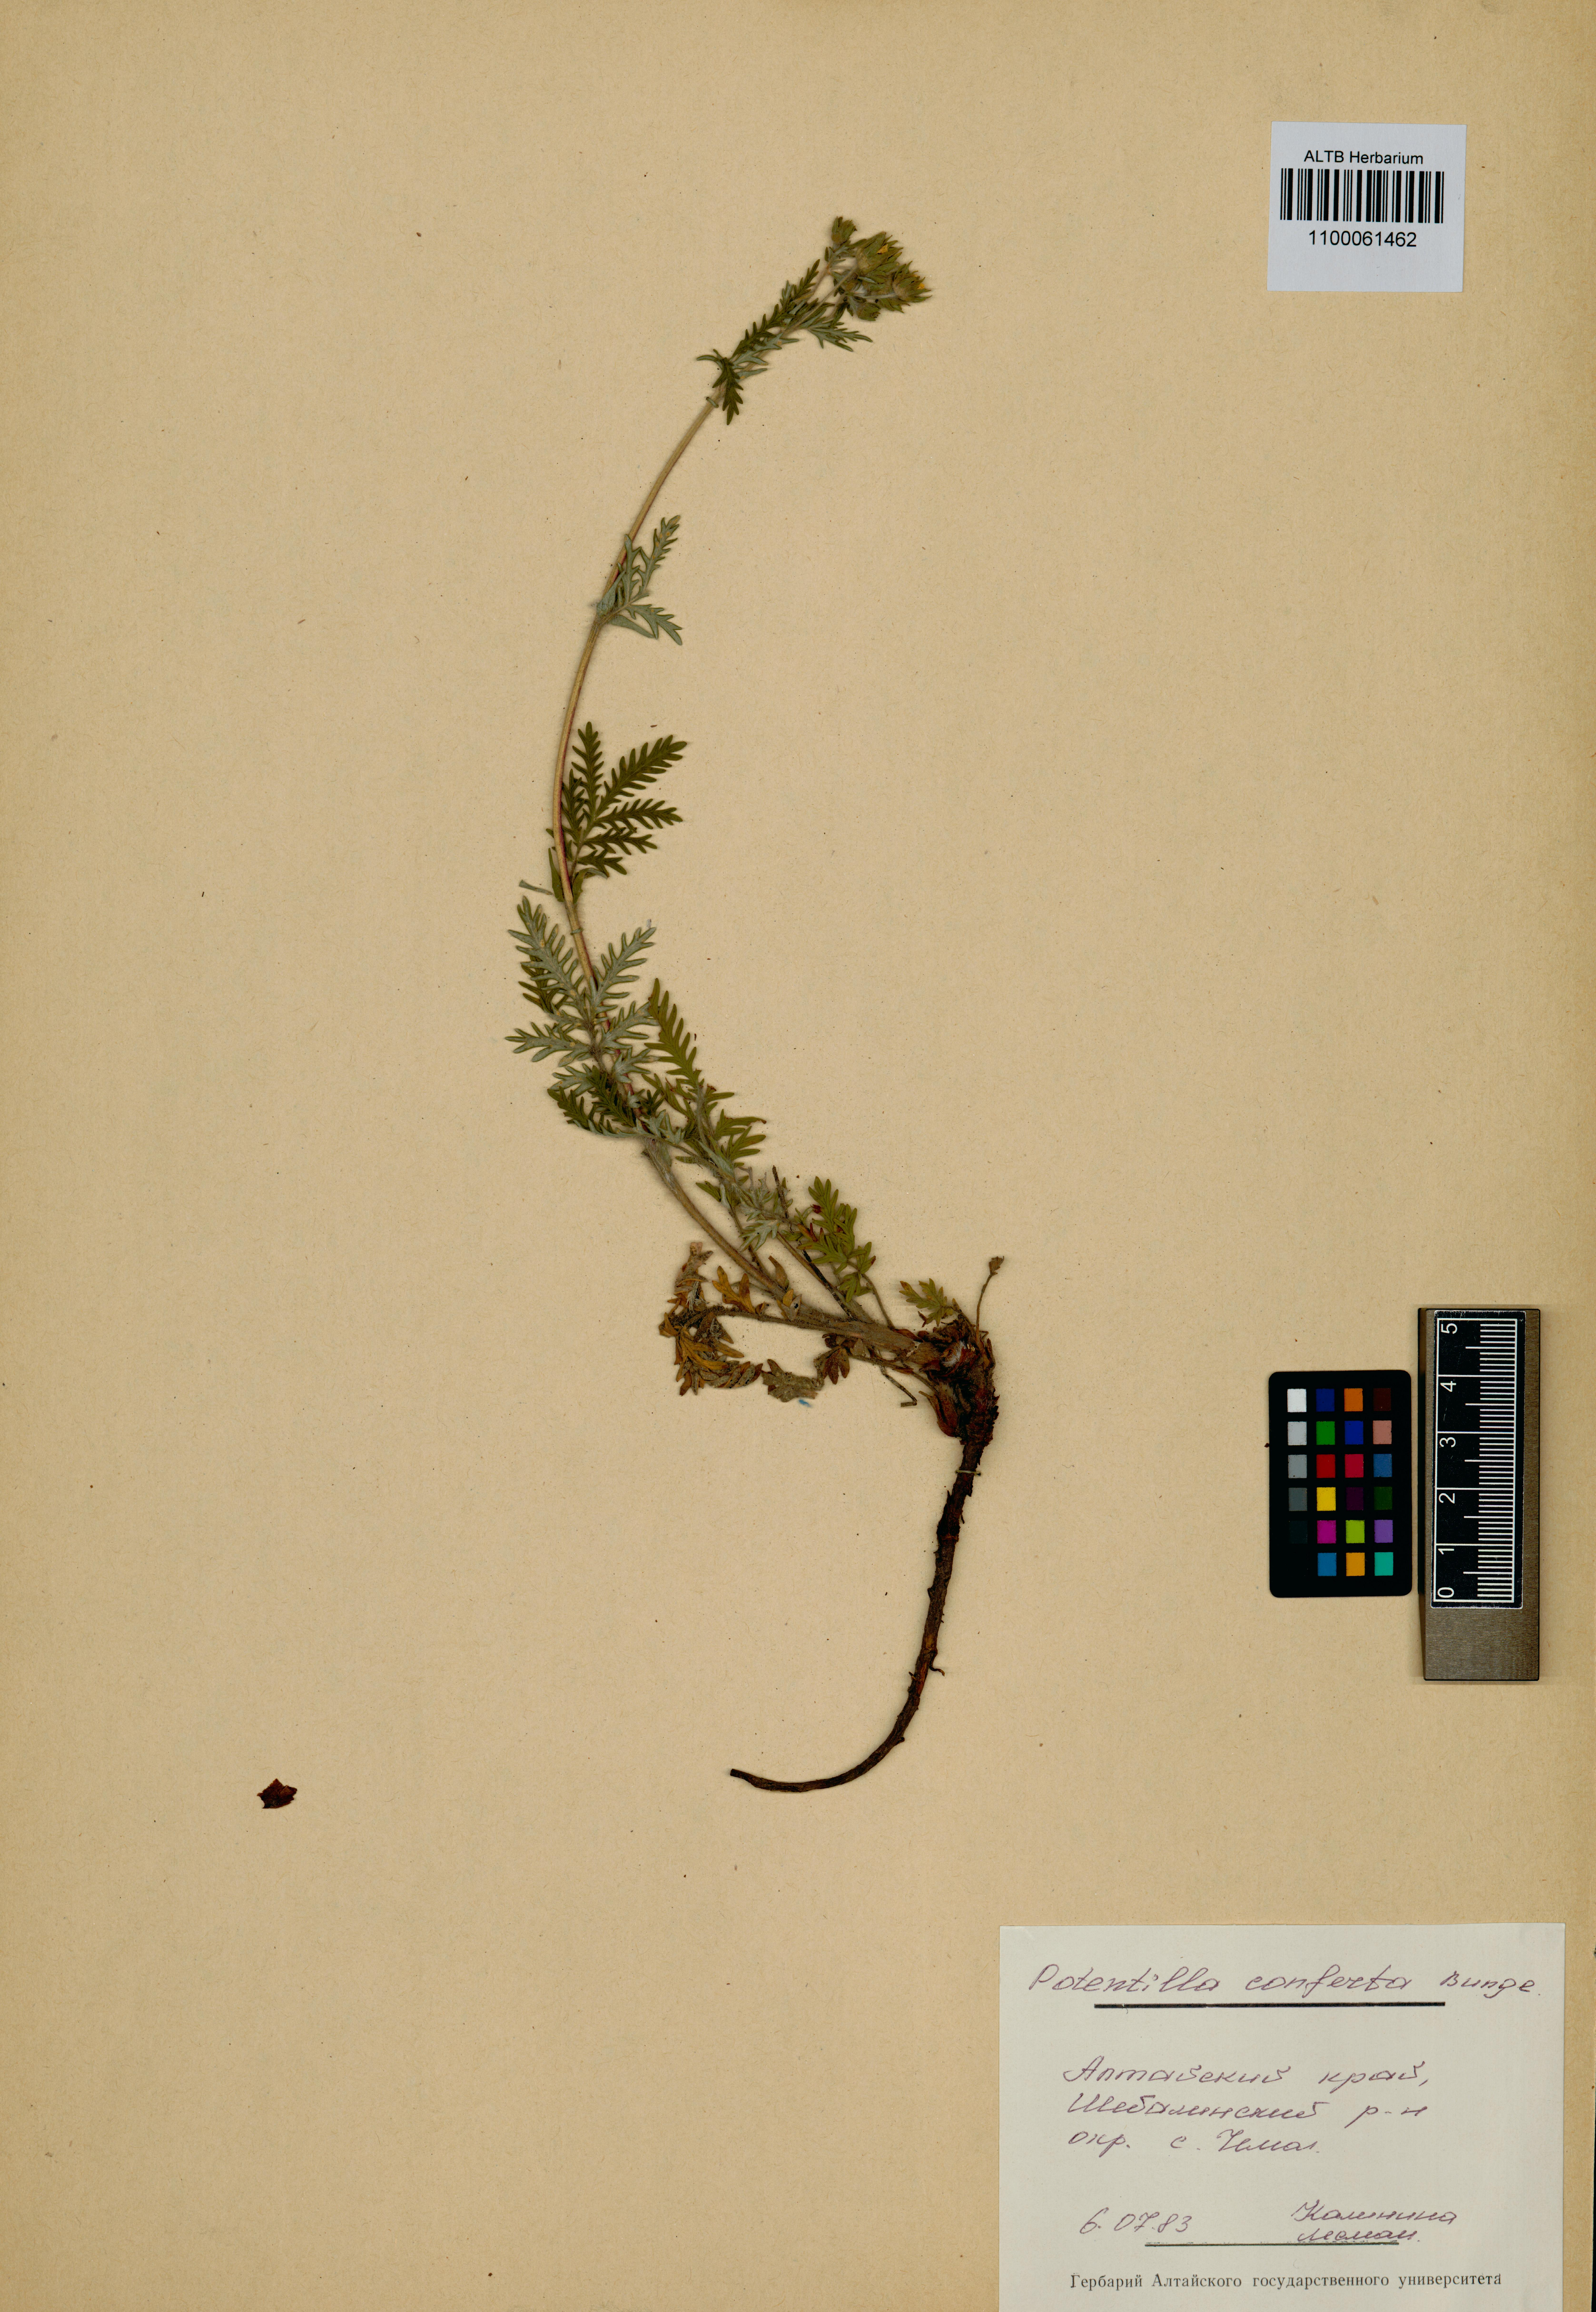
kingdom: Plantae
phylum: Tracheophyta
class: Magnoliopsida
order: Rosales
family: Rosaceae
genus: Potentilla
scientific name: Potentilla conferta
